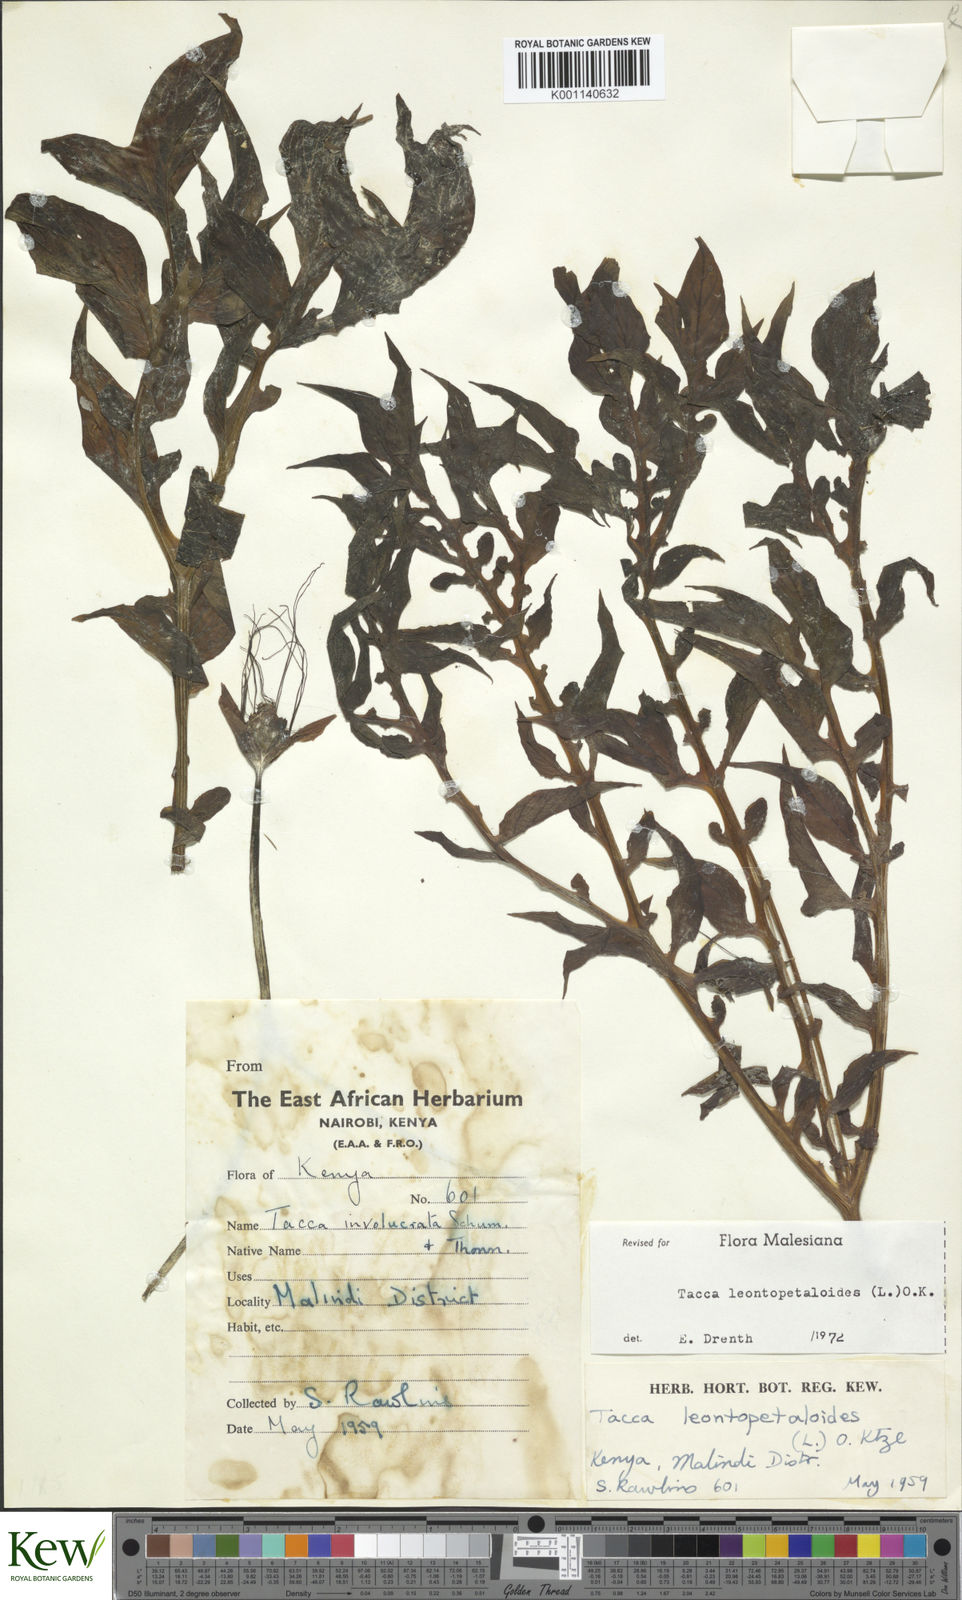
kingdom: Plantae
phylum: Tracheophyta
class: Liliopsida
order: Dioscoreales
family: Dioscoreaceae
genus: Tacca
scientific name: Tacca leontopetaloides
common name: Arrowroot
